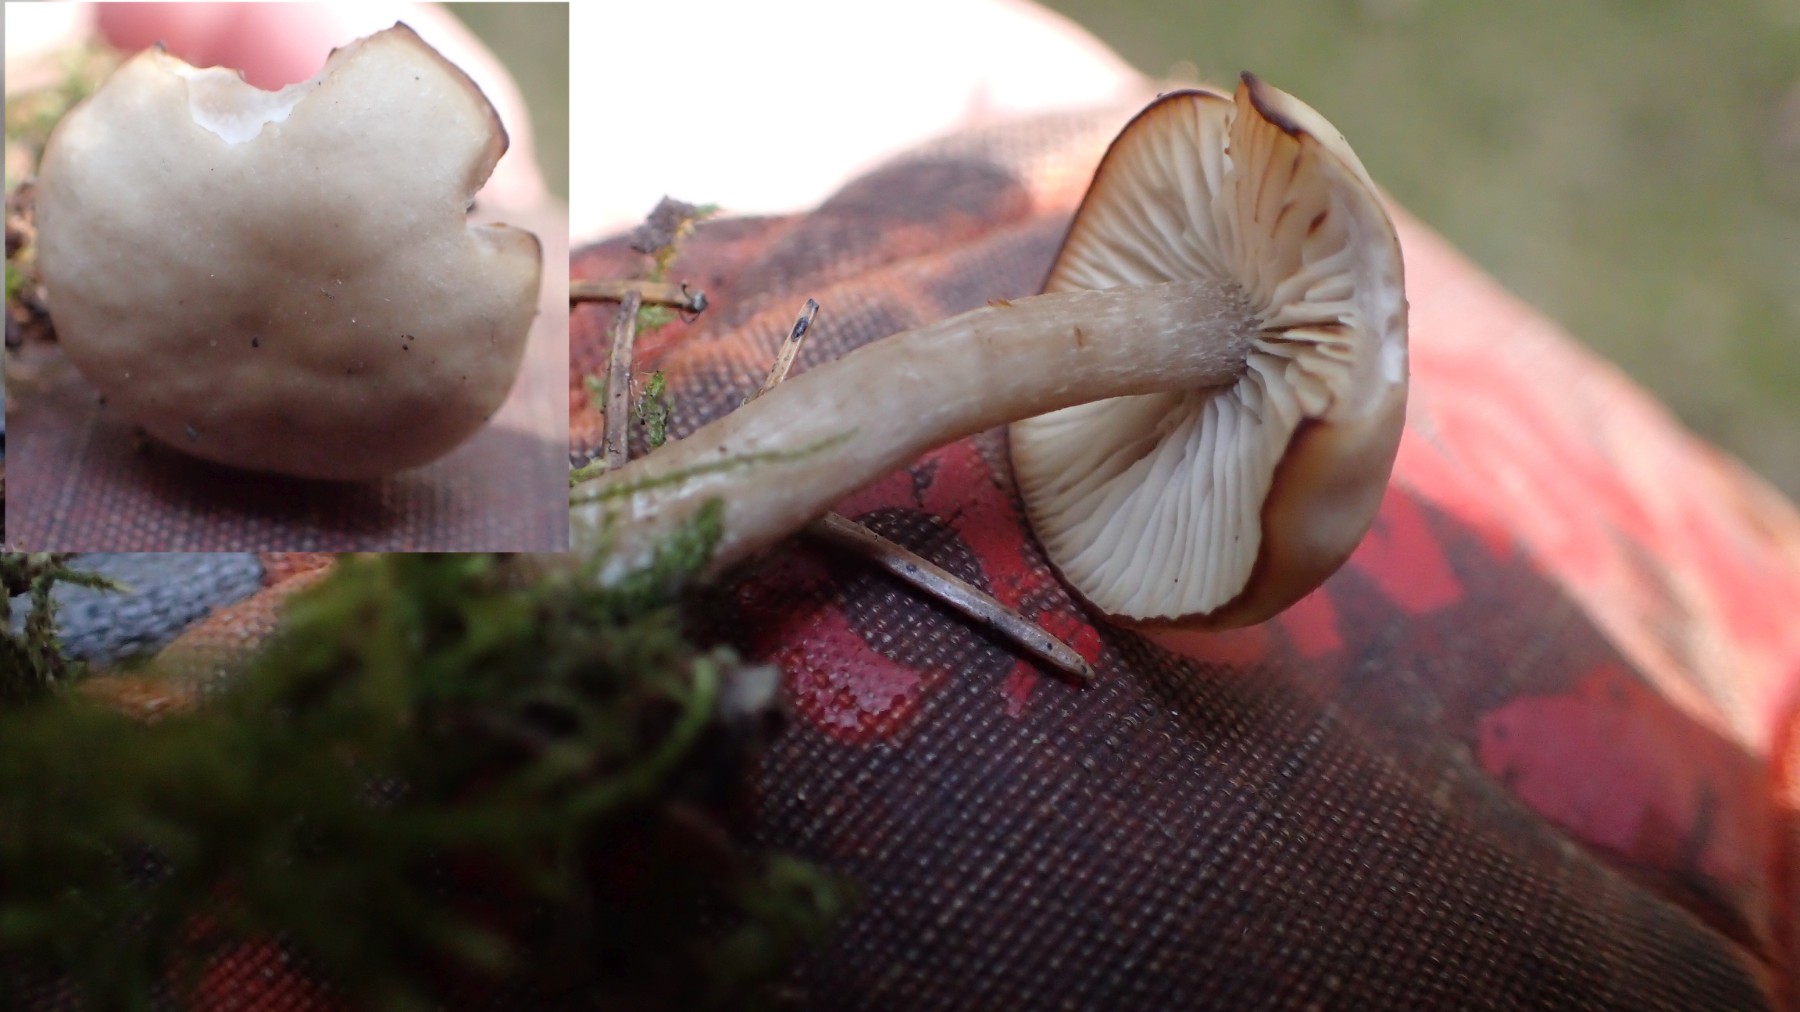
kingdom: Fungi
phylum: Basidiomycota
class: Agaricomycetes
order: Agaricales
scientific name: Agaricales
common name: champignonordenen
